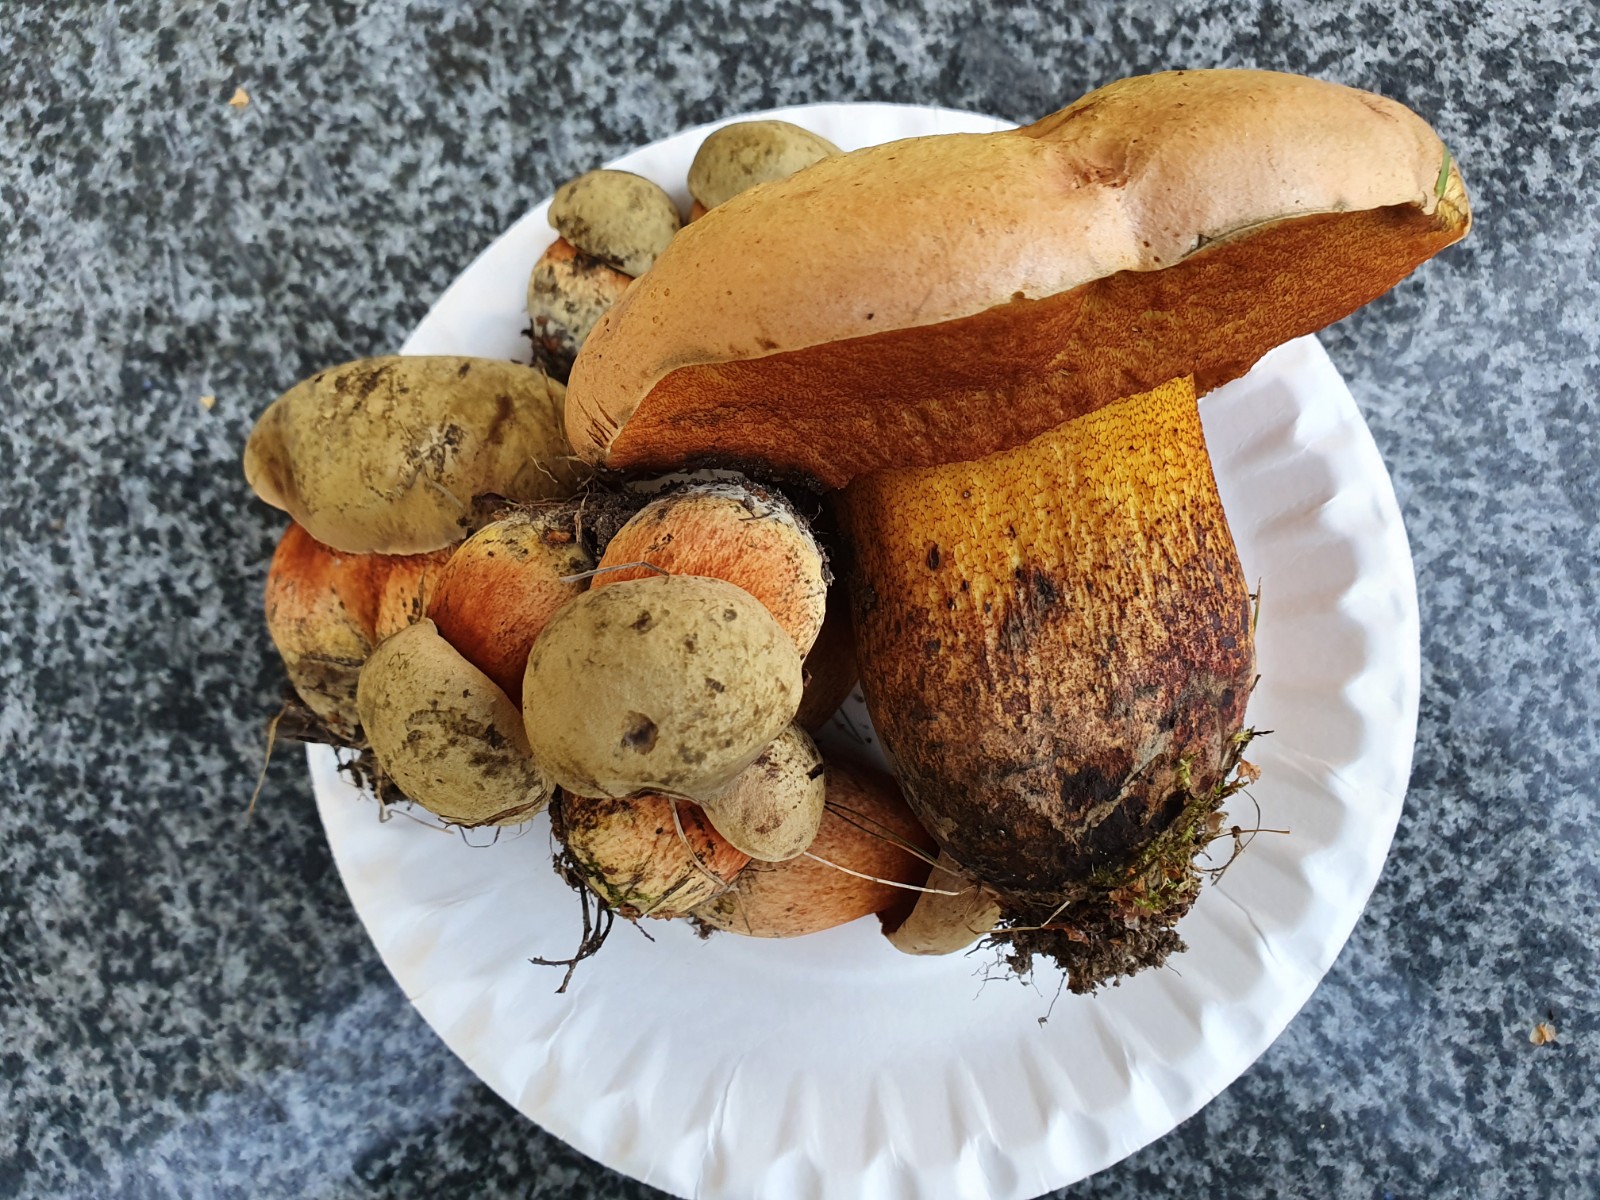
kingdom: Fungi
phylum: Basidiomycota
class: Agaricomycetes
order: Boletales
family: Boletaceae
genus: Suillellus
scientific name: Suillellus luridus
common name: netstokket indigorørhat
